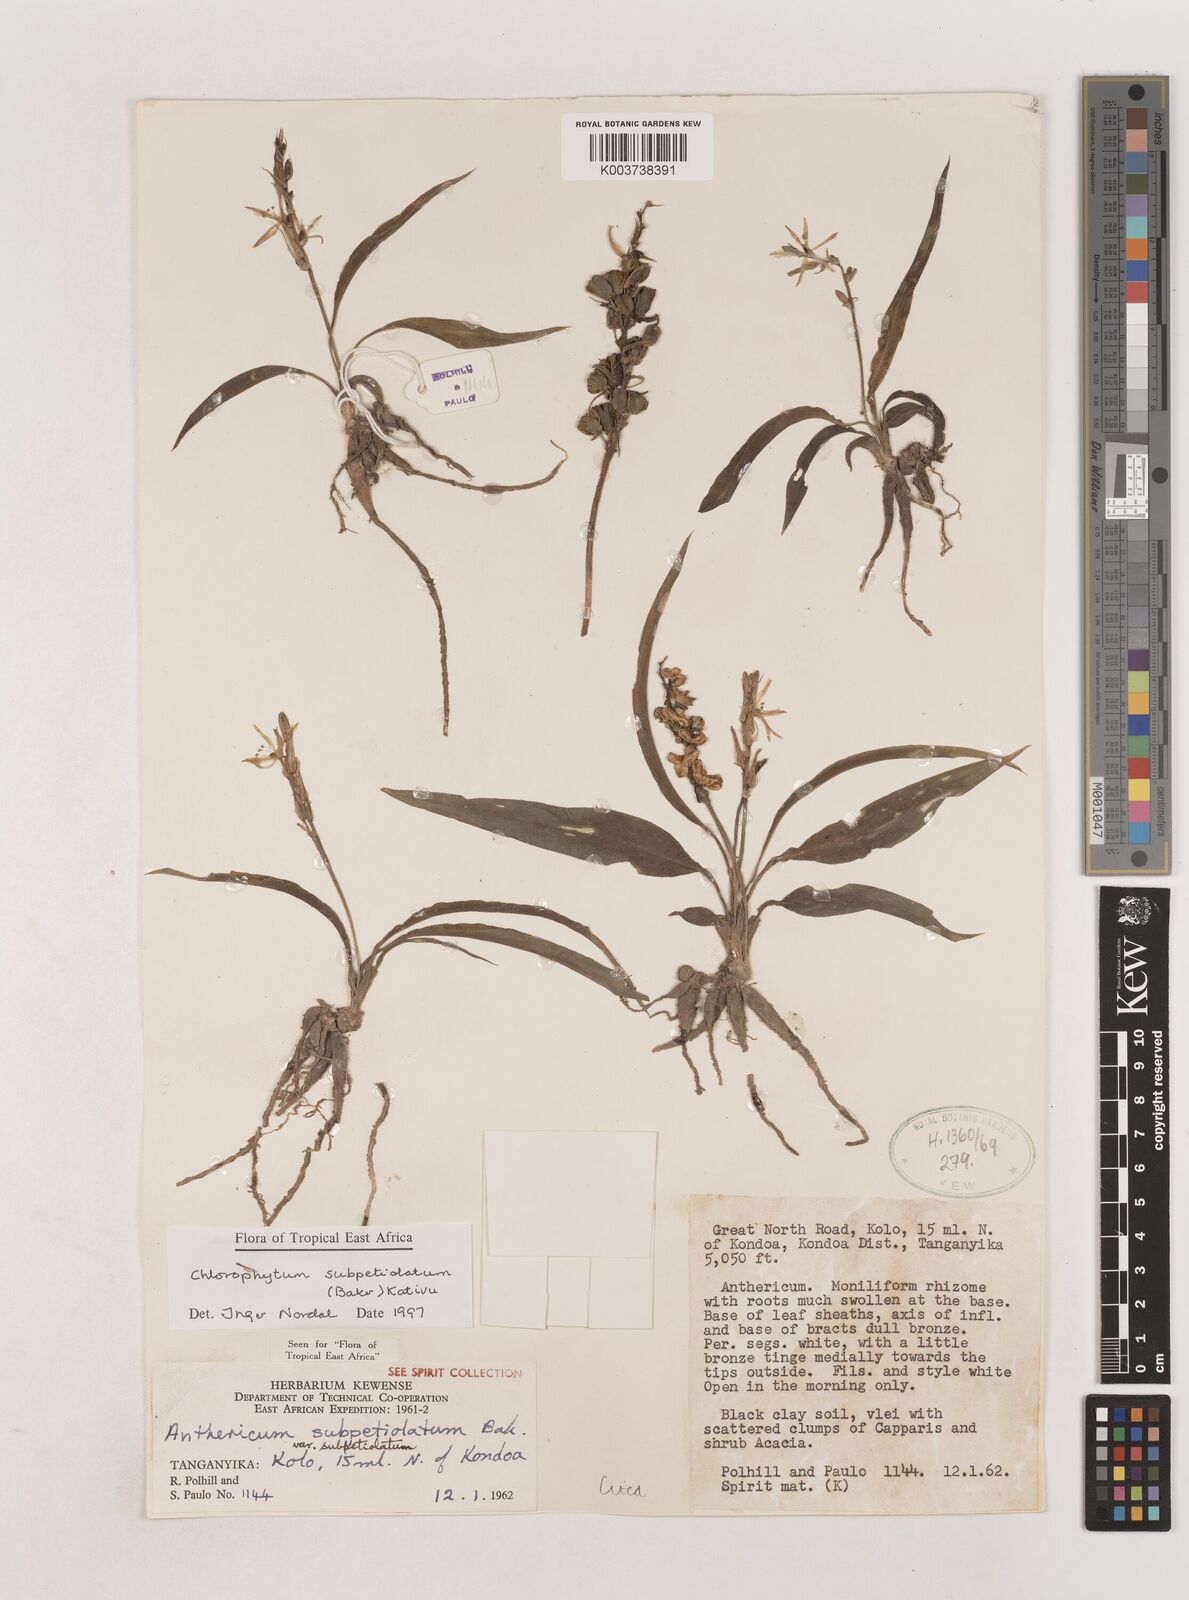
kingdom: Plantae
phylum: Tracheophyta
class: Liliopsida
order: Asparagales
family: Asparagaceae
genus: Chlorophytum
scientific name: Chlorophytum subpetiolatum
